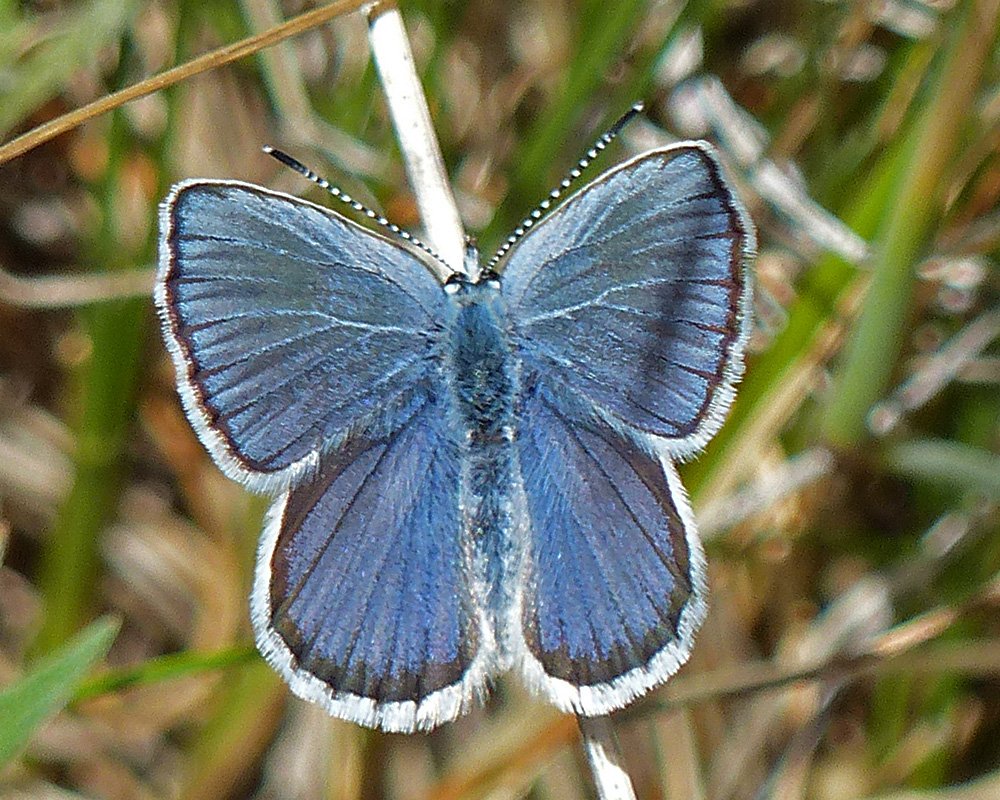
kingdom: Animalia
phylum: Arthropoda
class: Insecta
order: Lepidoptera
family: Lycaenidae
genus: Lycaeides
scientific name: Lycaeides anna
